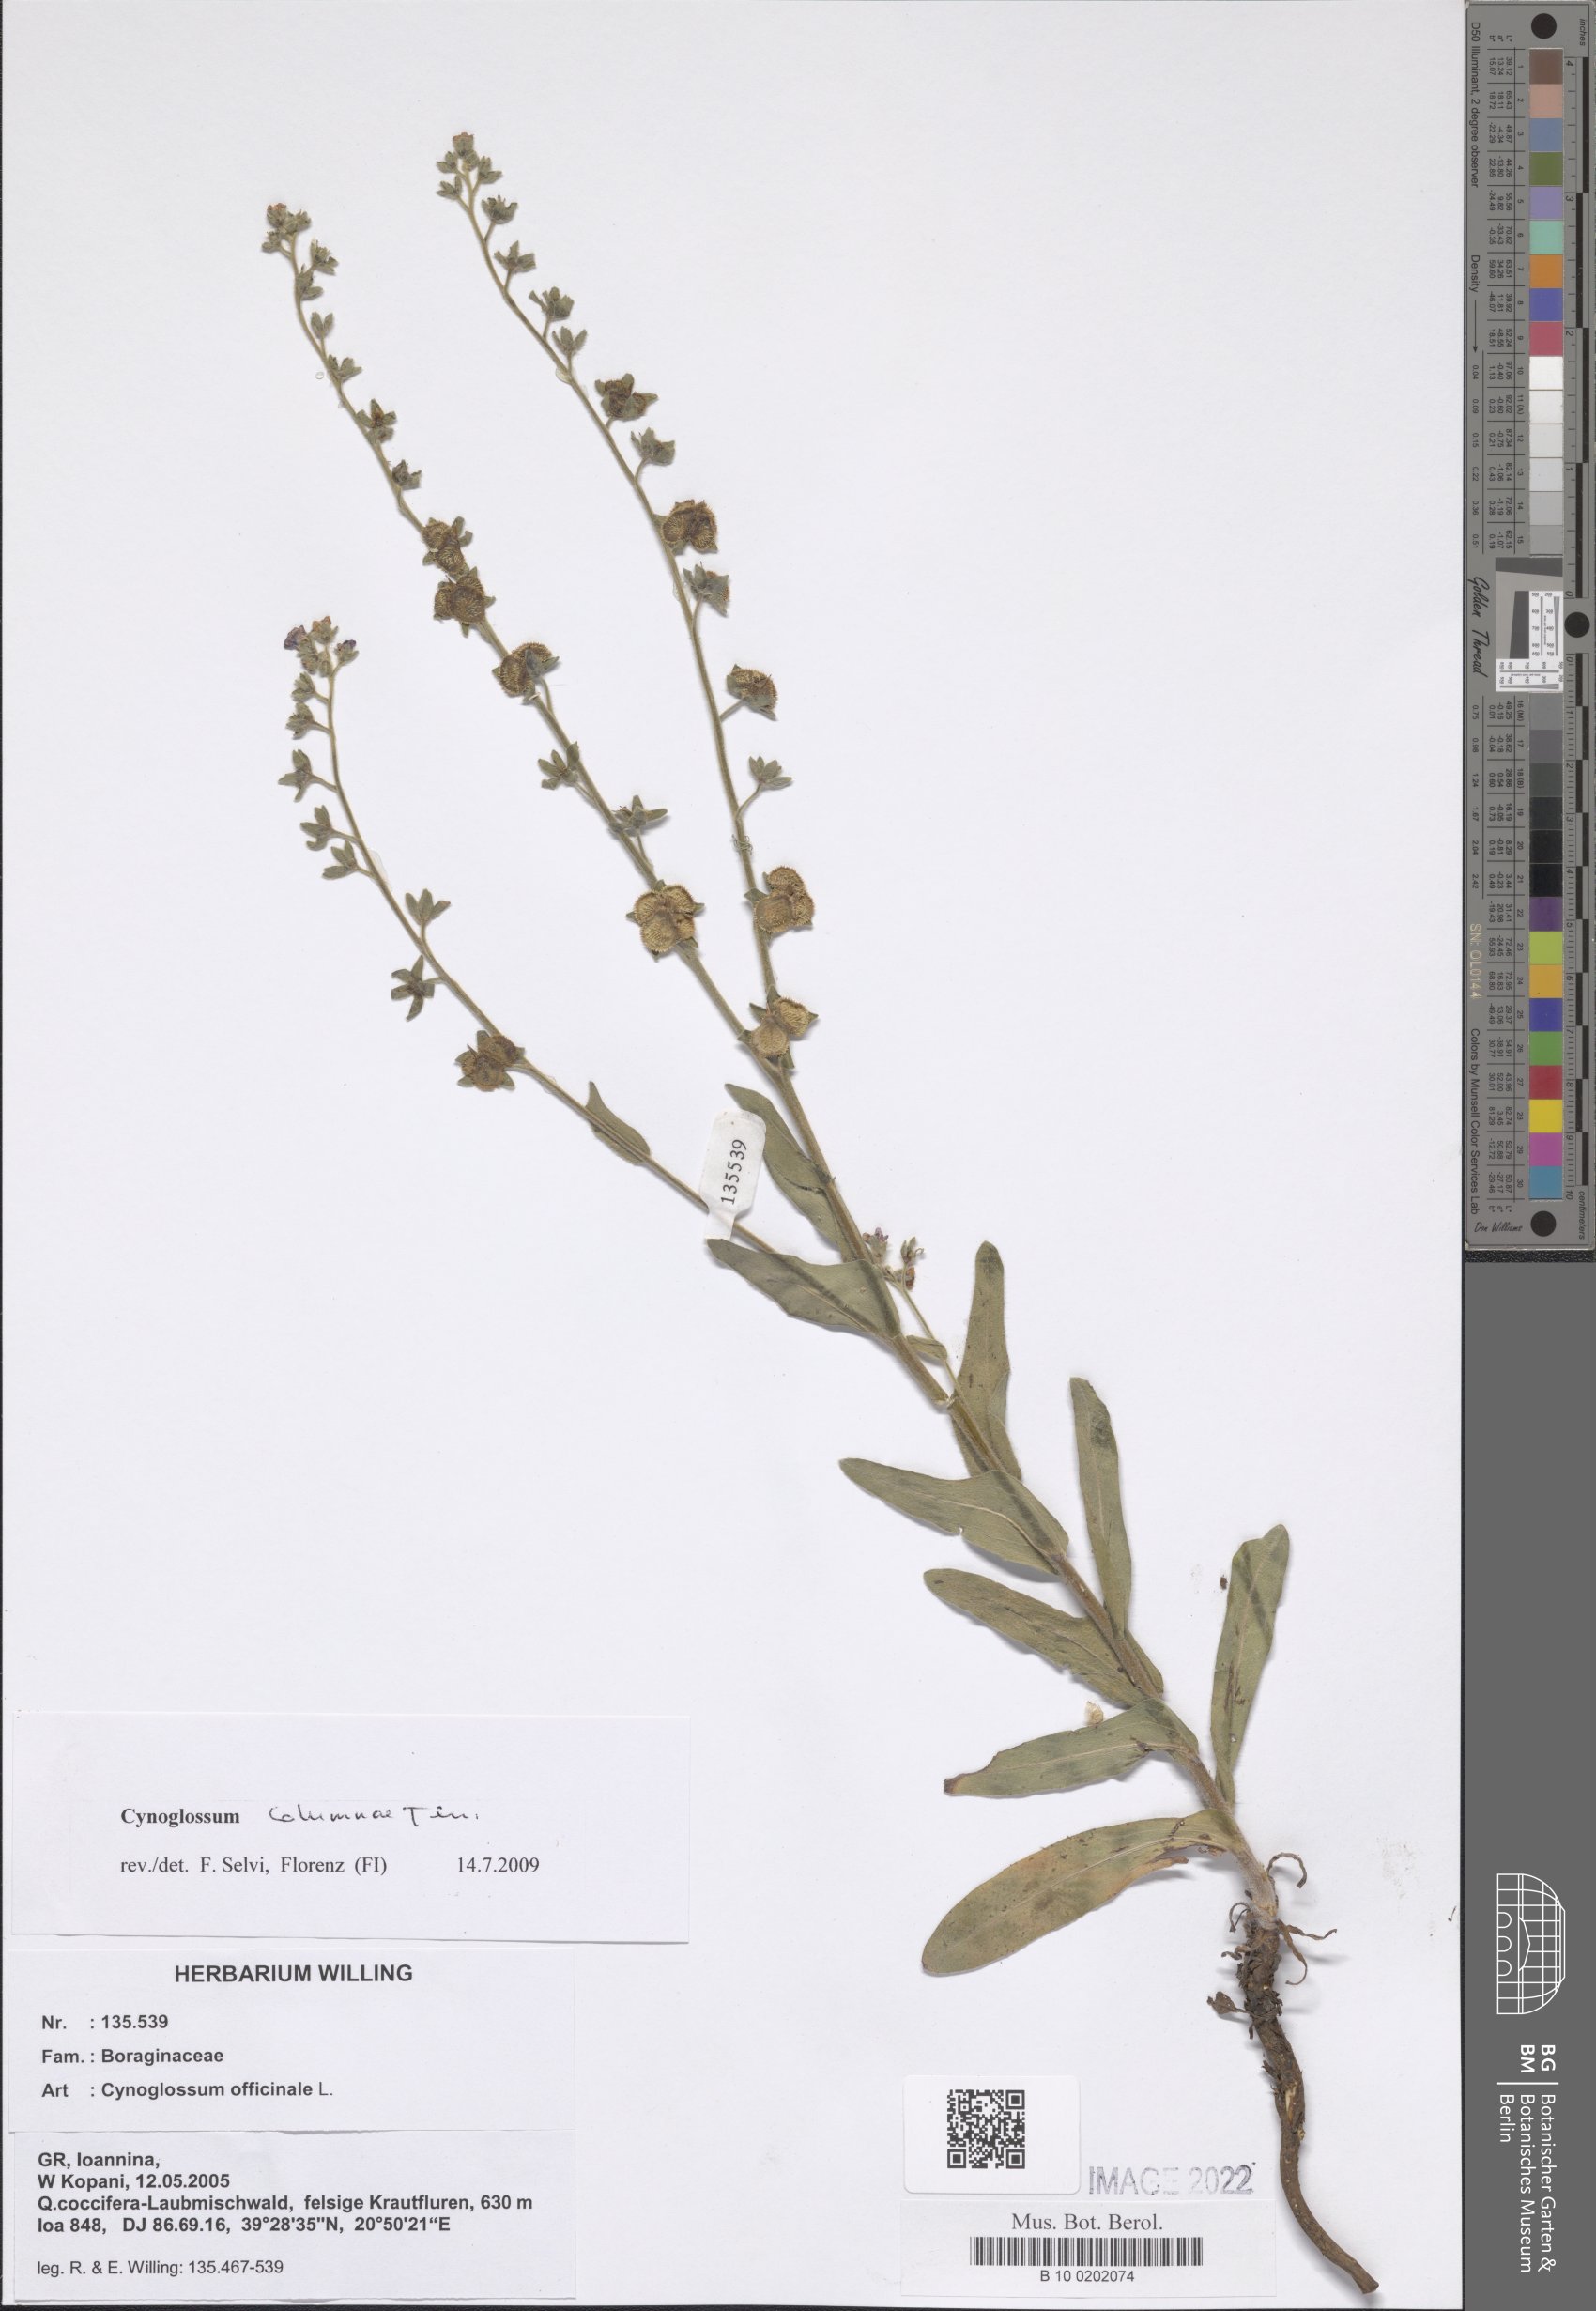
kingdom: Plantae
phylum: Tracheophyta
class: Magnoliopsida
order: Boraginales
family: Boraginaceae
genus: Rindera
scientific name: Rindera columnae
